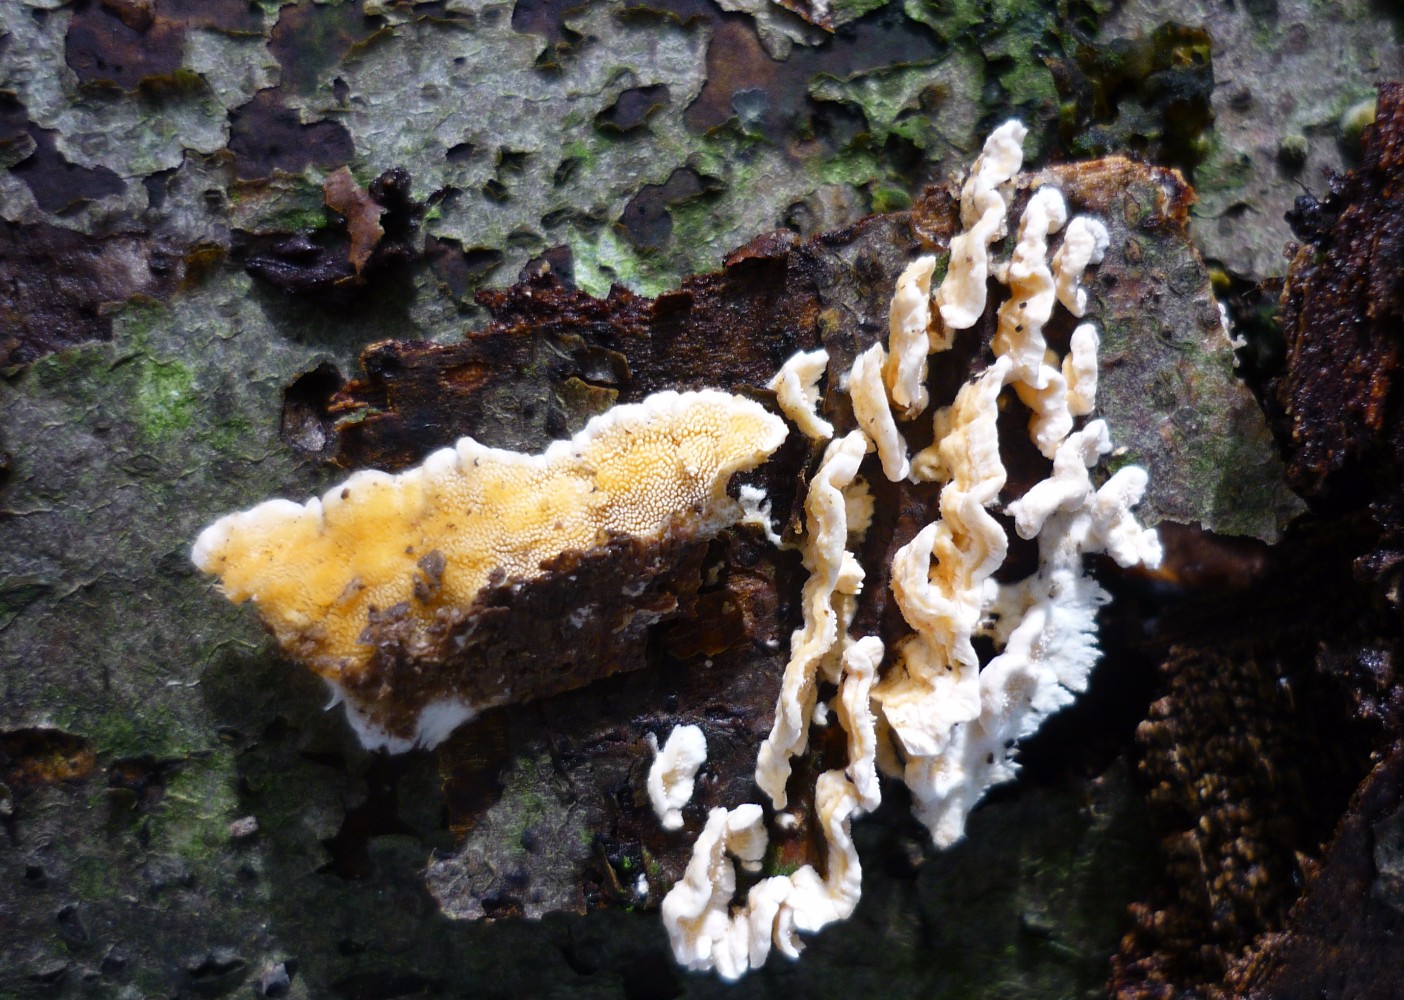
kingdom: Fungi
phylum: Basidiomycota
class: Agaricomycetes
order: Polyporales
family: Steccherinaceae
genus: Steccherinum
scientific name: Steccherinum ochraceum
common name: almindelig skønpig
